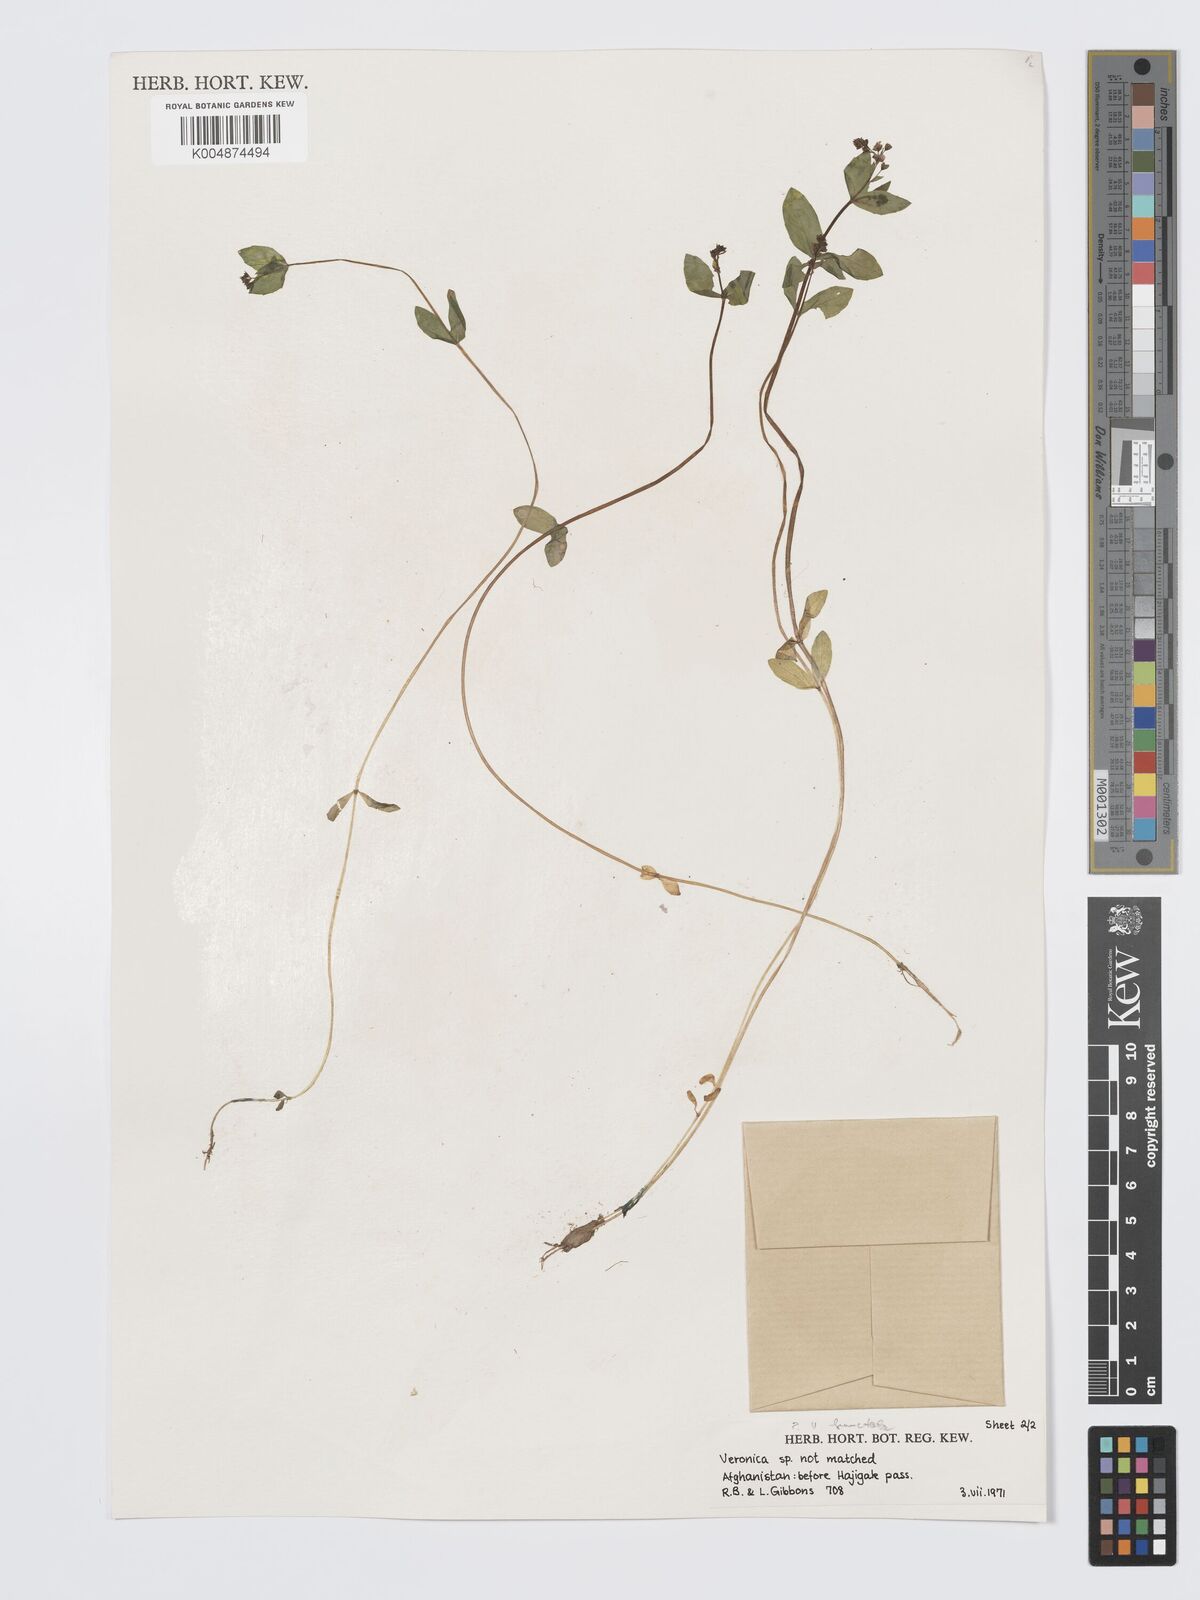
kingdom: Plantae
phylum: Tracheophyta
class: Magnoliopsida
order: Lamiales
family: Plantaginaceae
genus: Veronica
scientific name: Veronica oxycarpa
